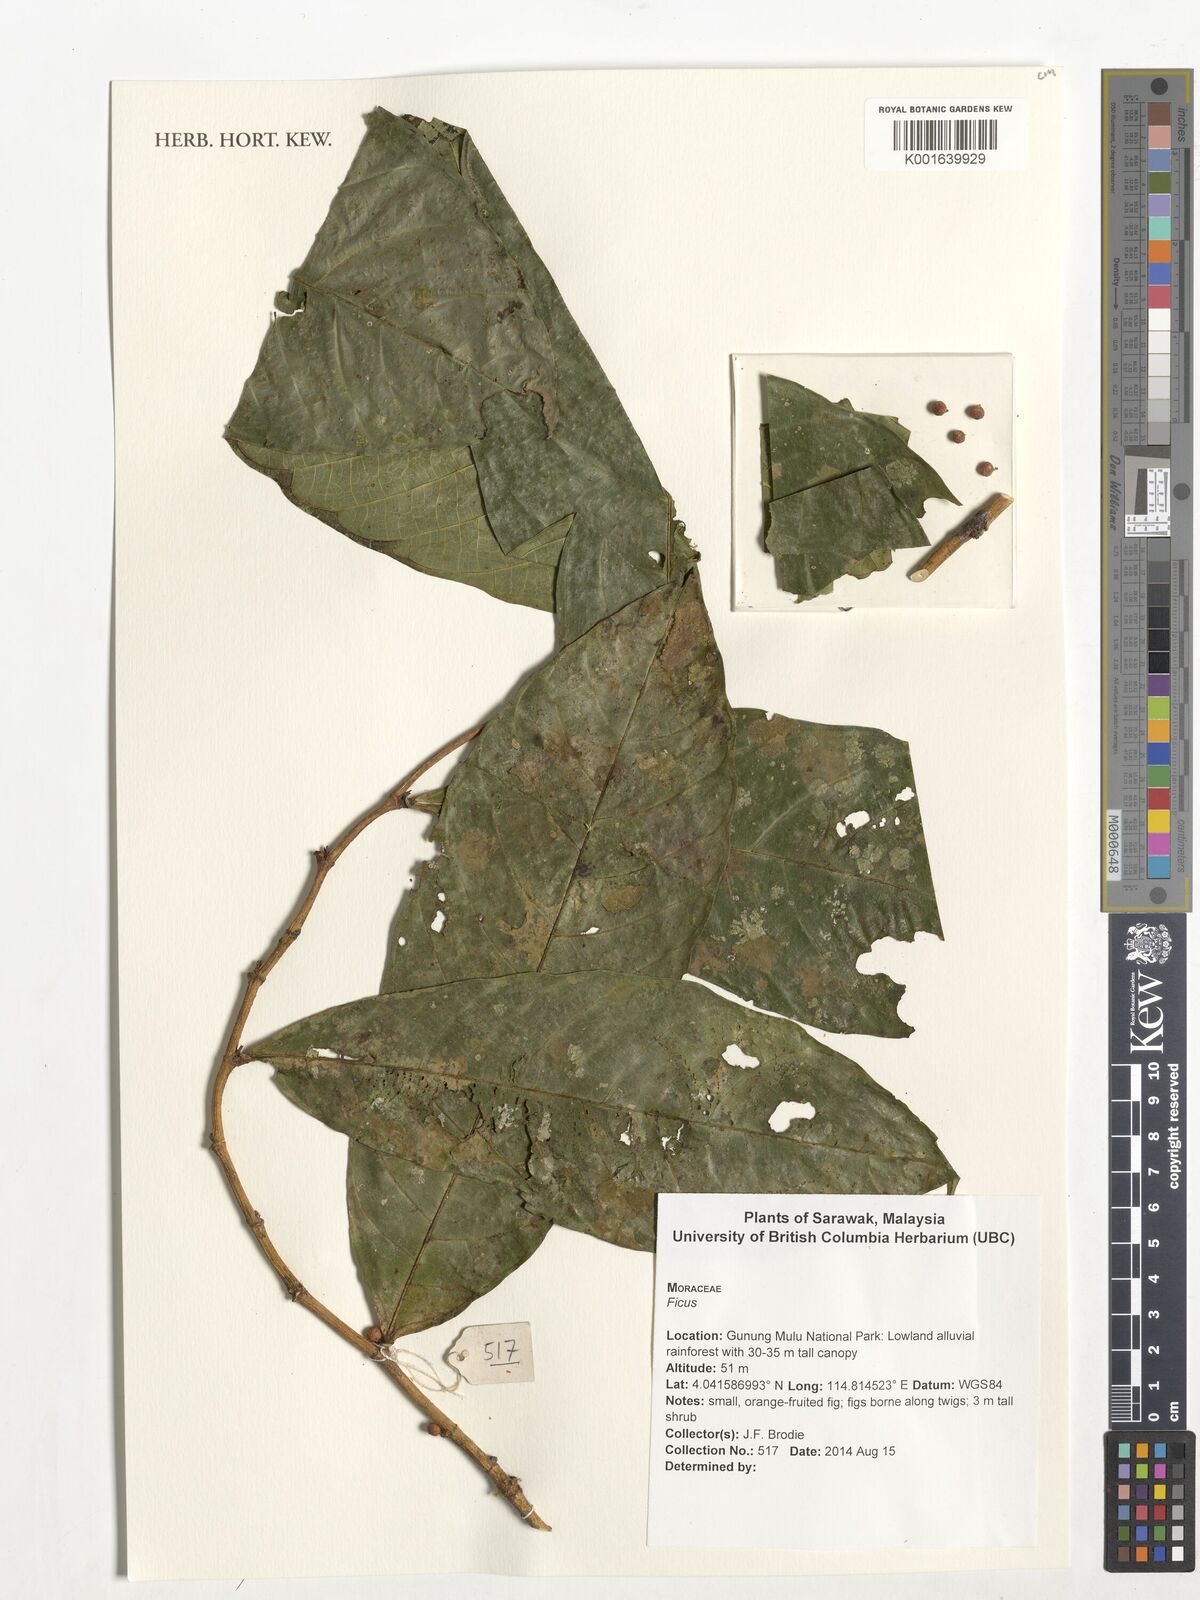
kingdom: Plantae
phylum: Tracheophyta
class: Magnoliopsida
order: Rosales
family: Moraceae
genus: Ficus
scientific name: Ficus
